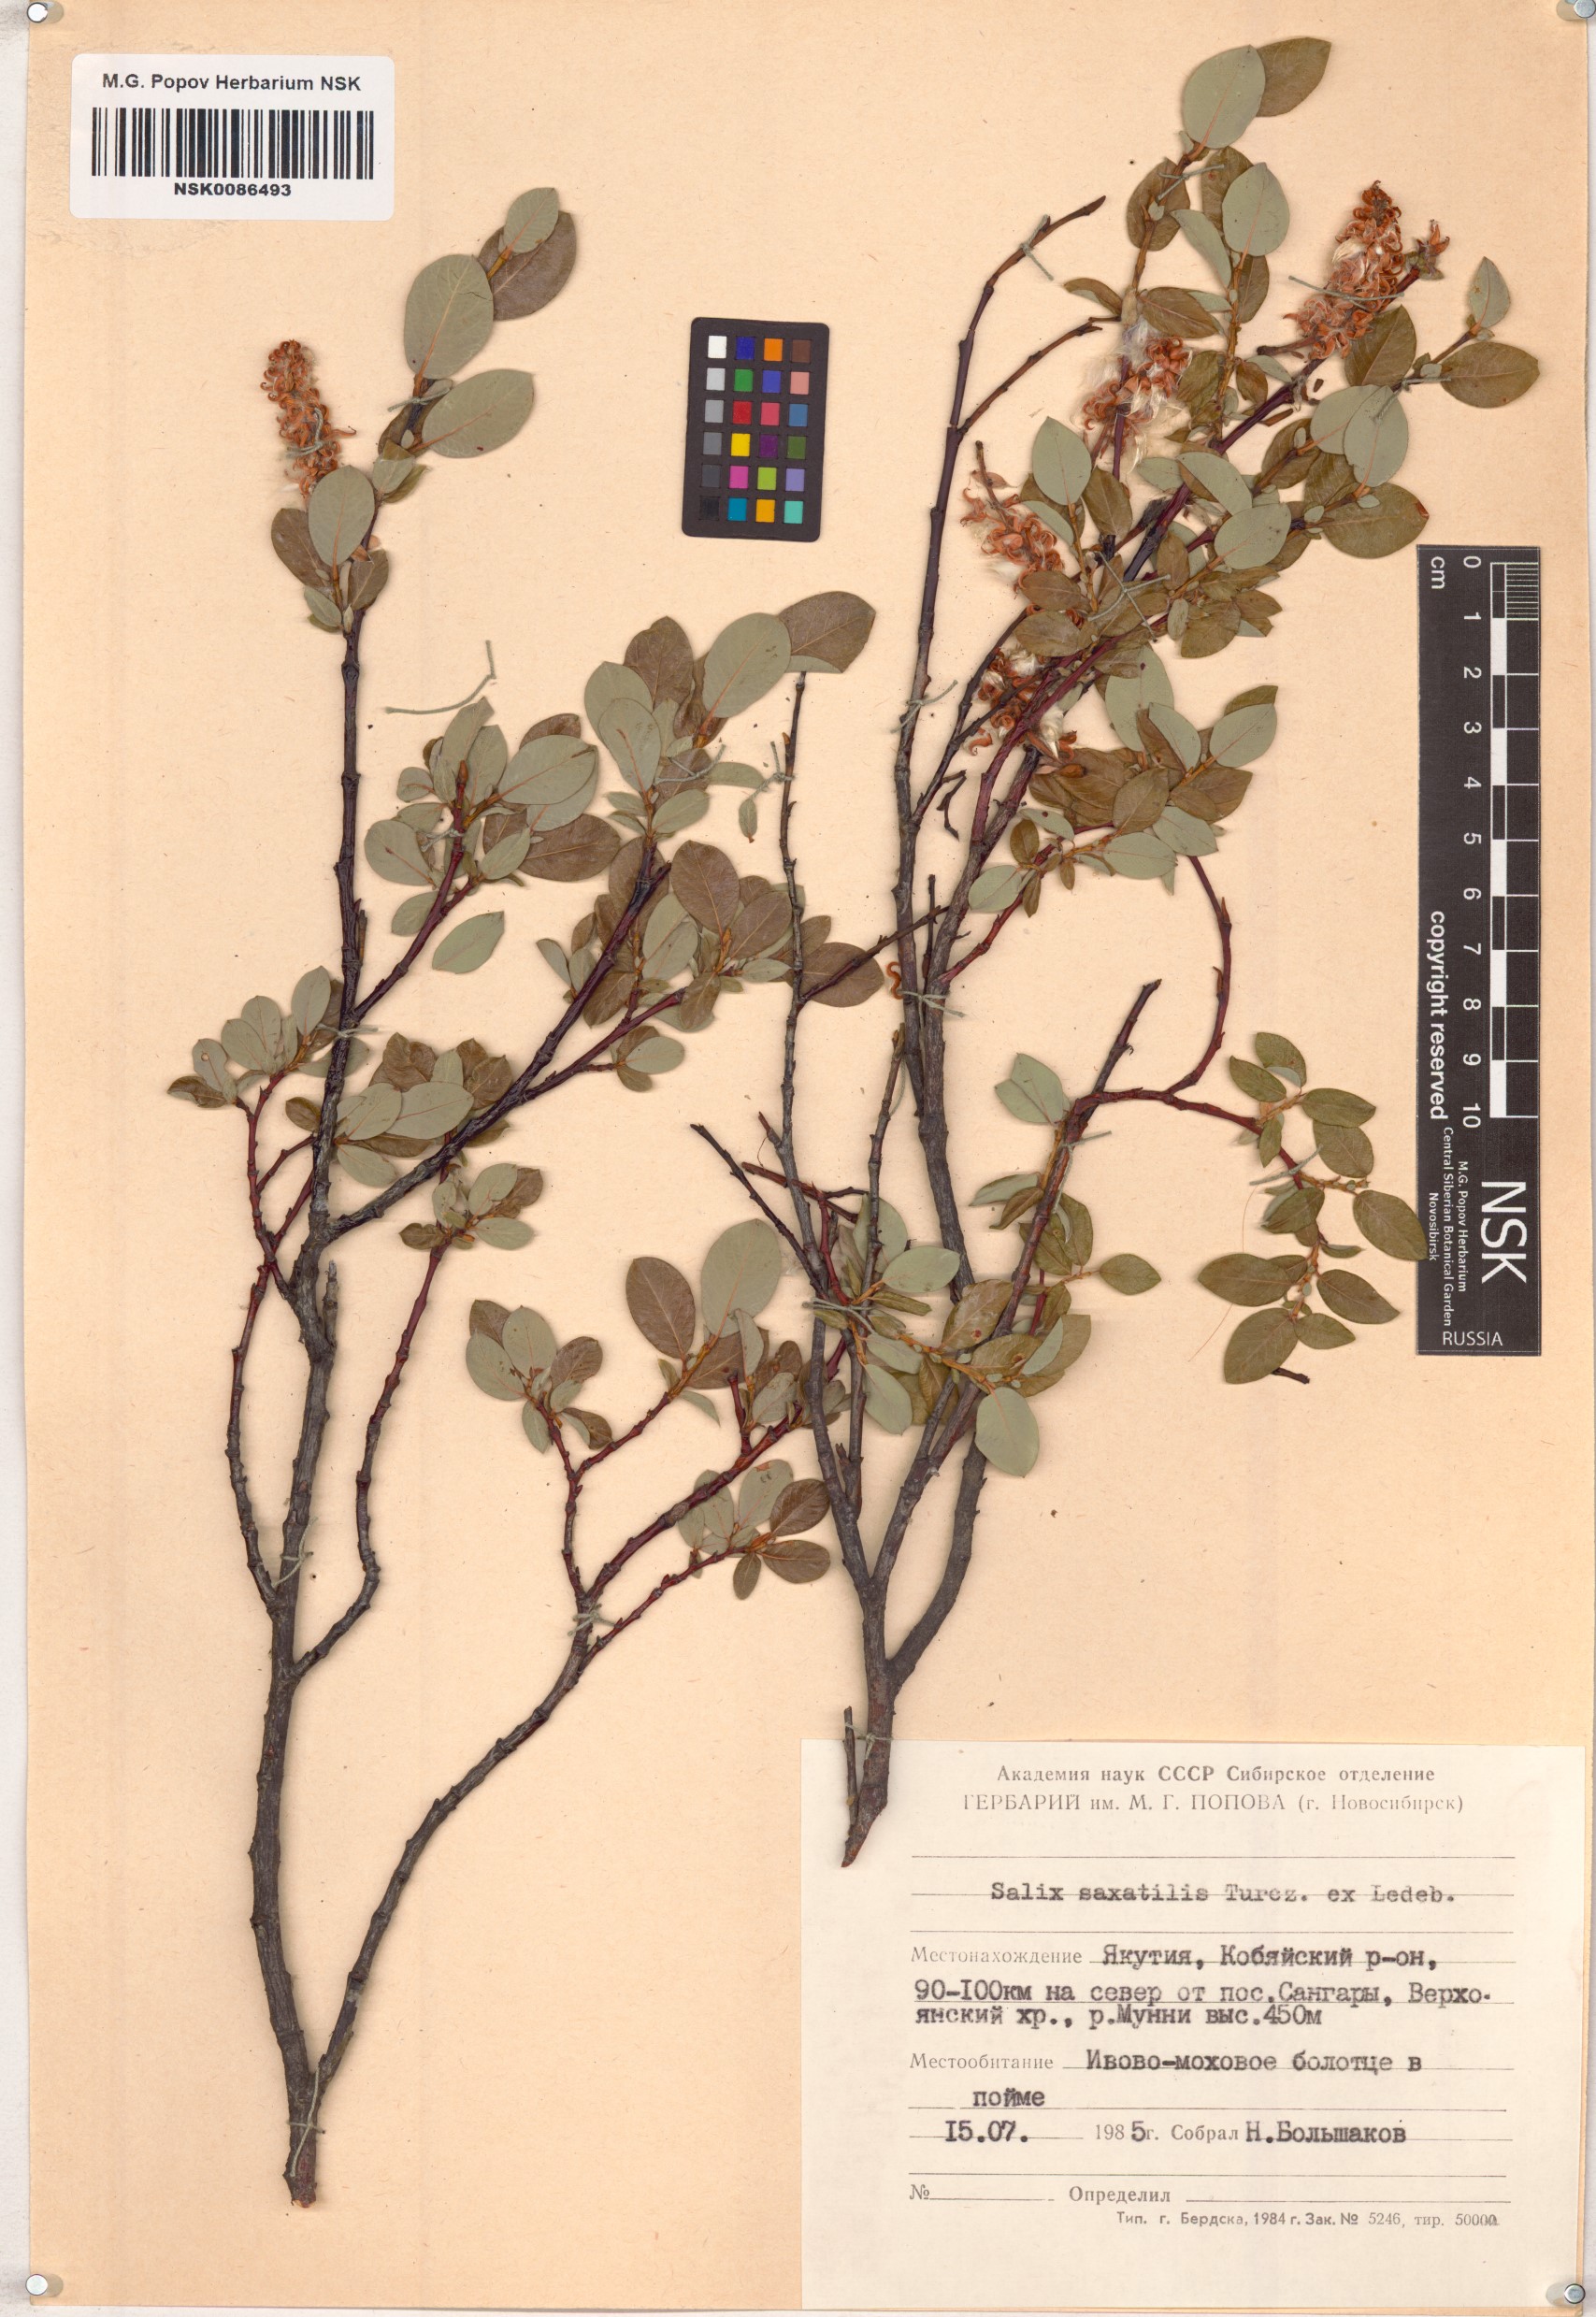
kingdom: Plantae
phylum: Tracheophyta
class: Magnoliopsida
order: Malpighiales
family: Salicaceae
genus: Salix
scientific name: Salix saxatilis
